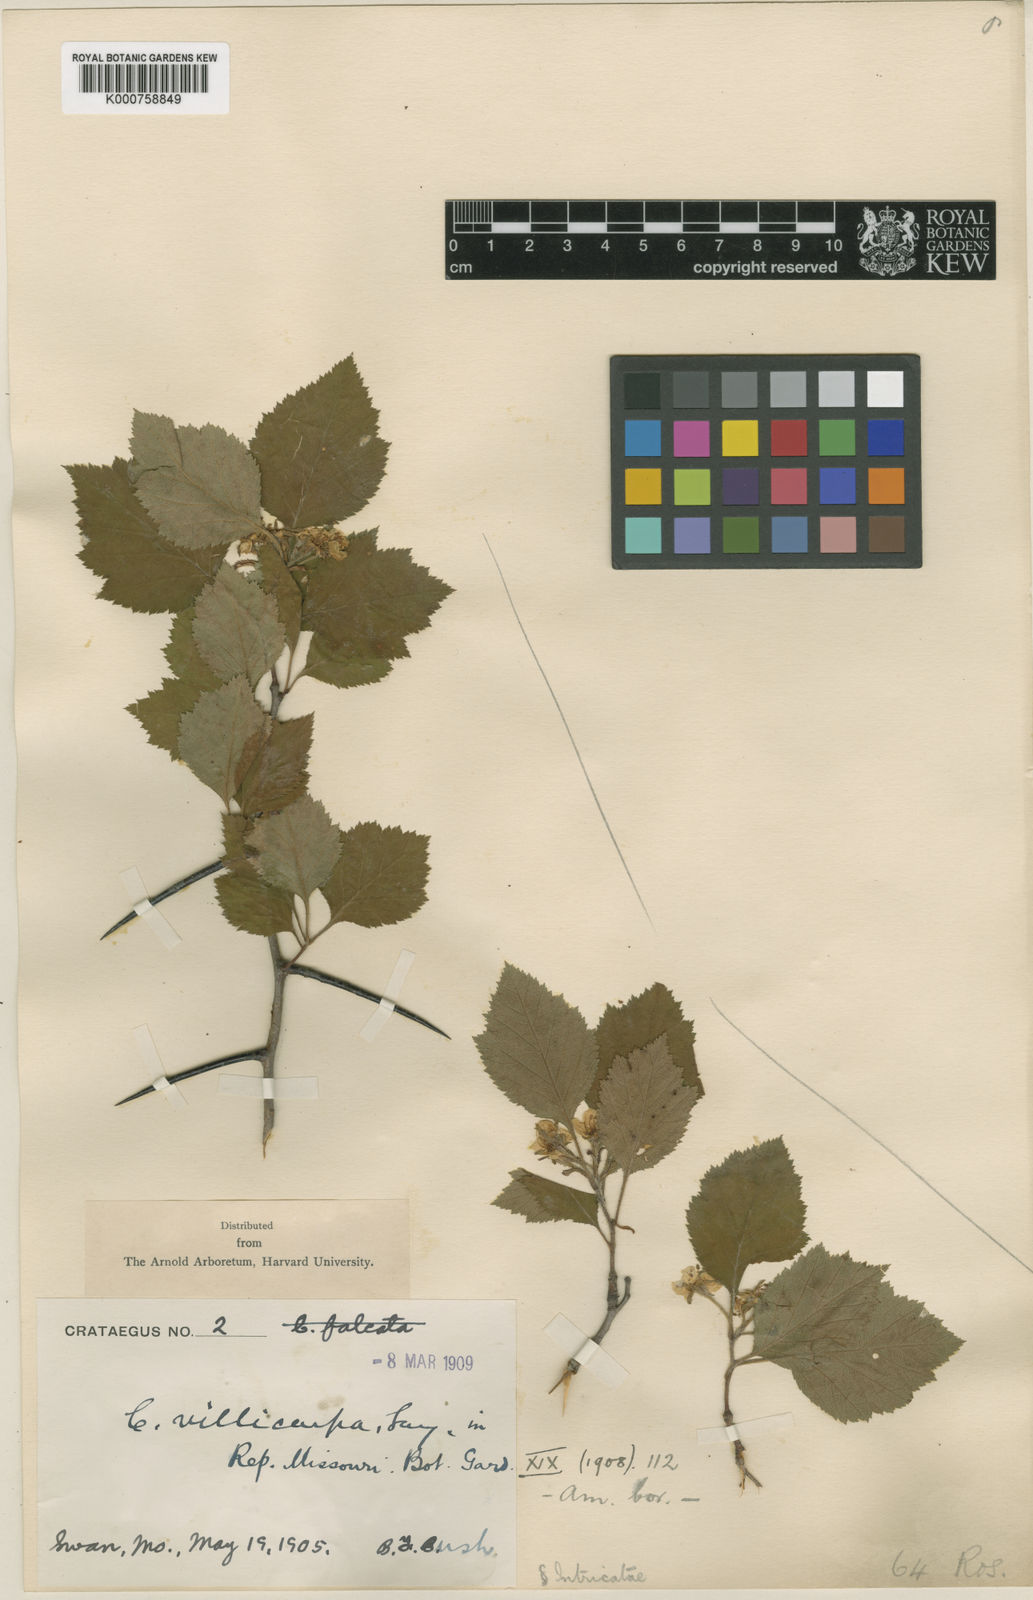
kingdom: Plantae
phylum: Tracheophyta
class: Magnoliopsida
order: Rosales
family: Rosaceae
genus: Crataegus
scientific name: Crataegus intricata
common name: Biltmore hawthorn
